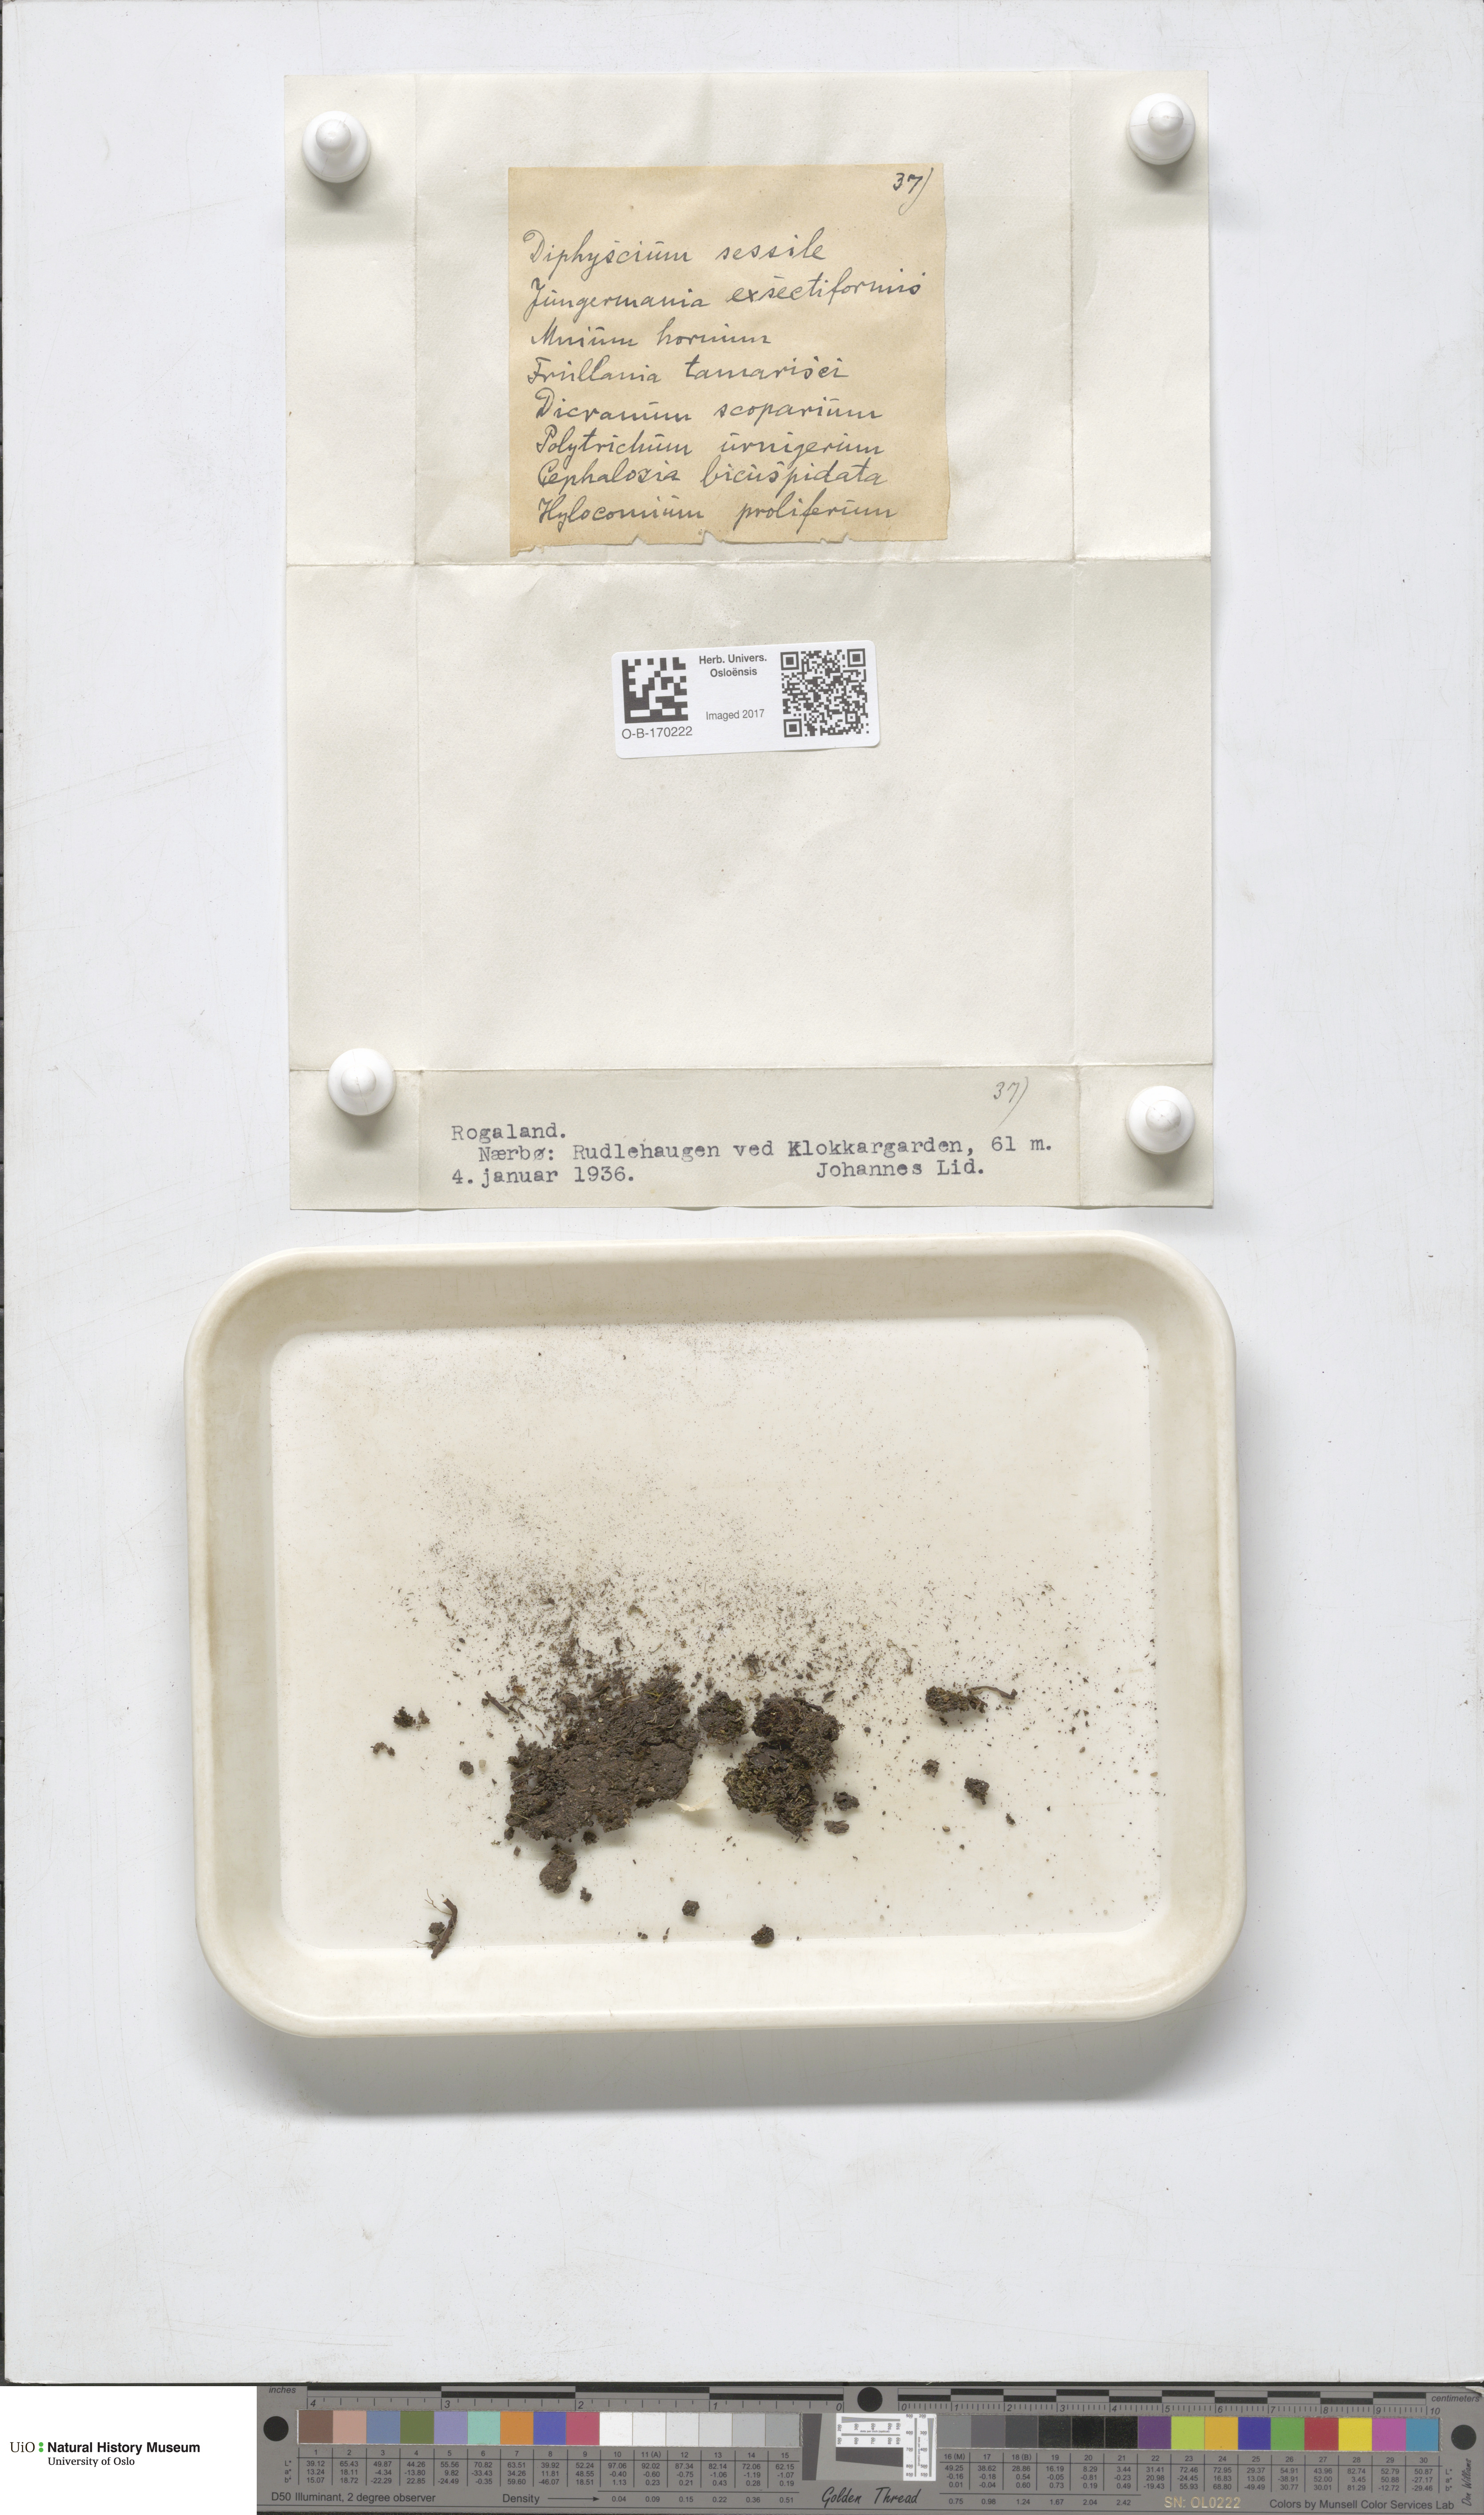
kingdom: Plantae
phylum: Bryophyta
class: Bryopsida
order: Diphysciales
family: Diphysciaceae
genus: Diphyscium
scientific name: Diphyscium foliosum
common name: Nut moss
